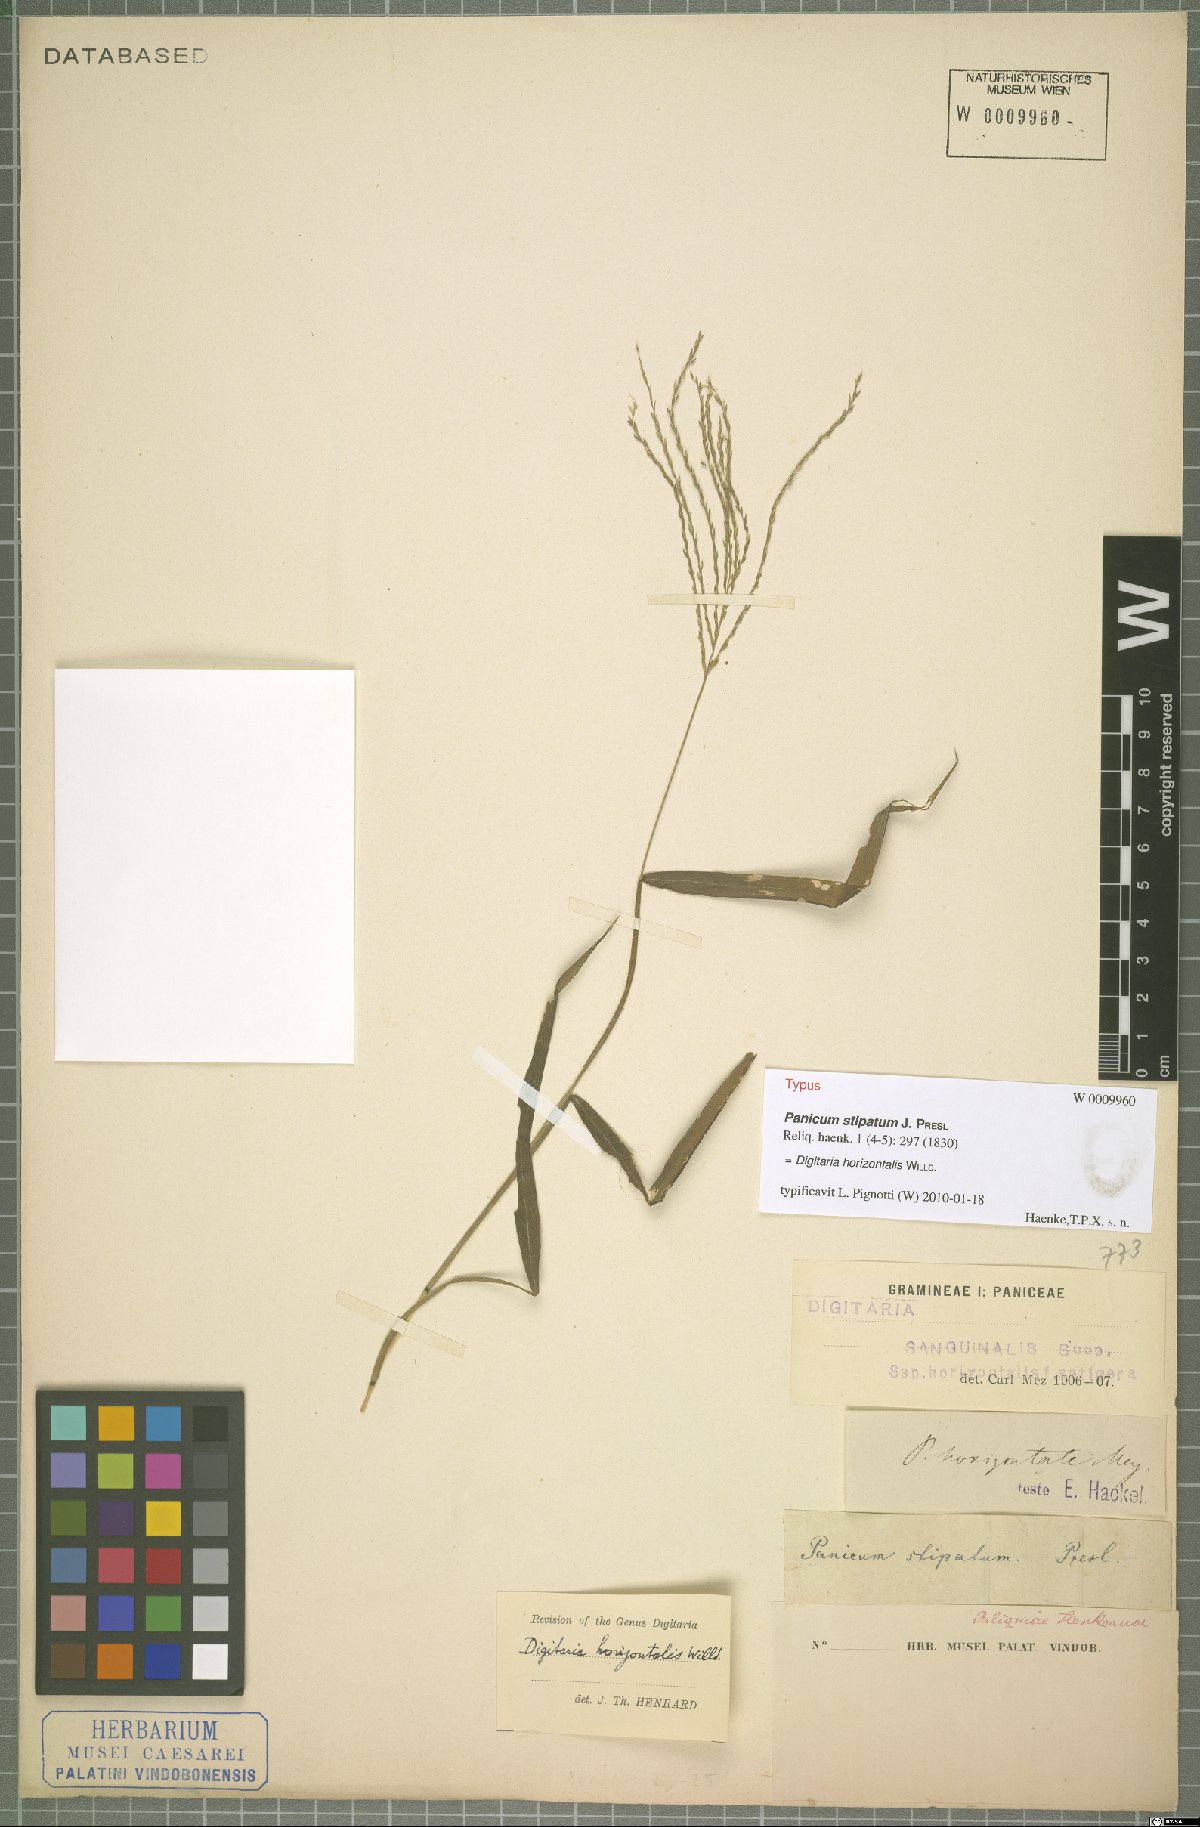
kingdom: Plantae
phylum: Tracheophyta
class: Liliopsida
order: Poales
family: Poaceae
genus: Digitaria
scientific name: Digitaria horizontalis
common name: Jamaican crabgrass
